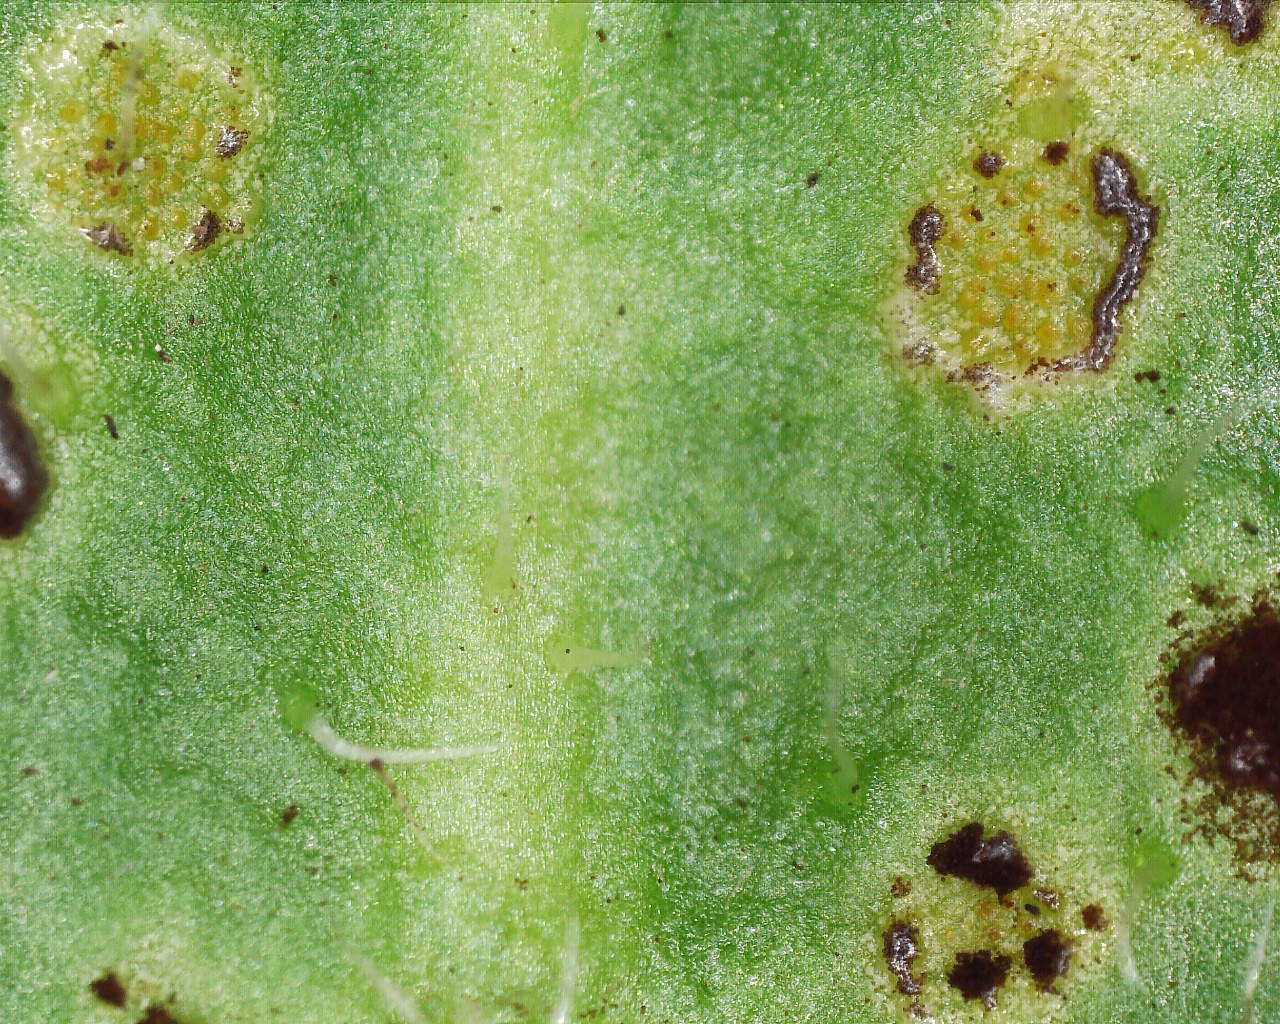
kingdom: Fungi
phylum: Basidiomycota
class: Pucciniomycetes
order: Pucciniales
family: Pucciniaceae
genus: Puccinia
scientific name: Puccinia hieracii
